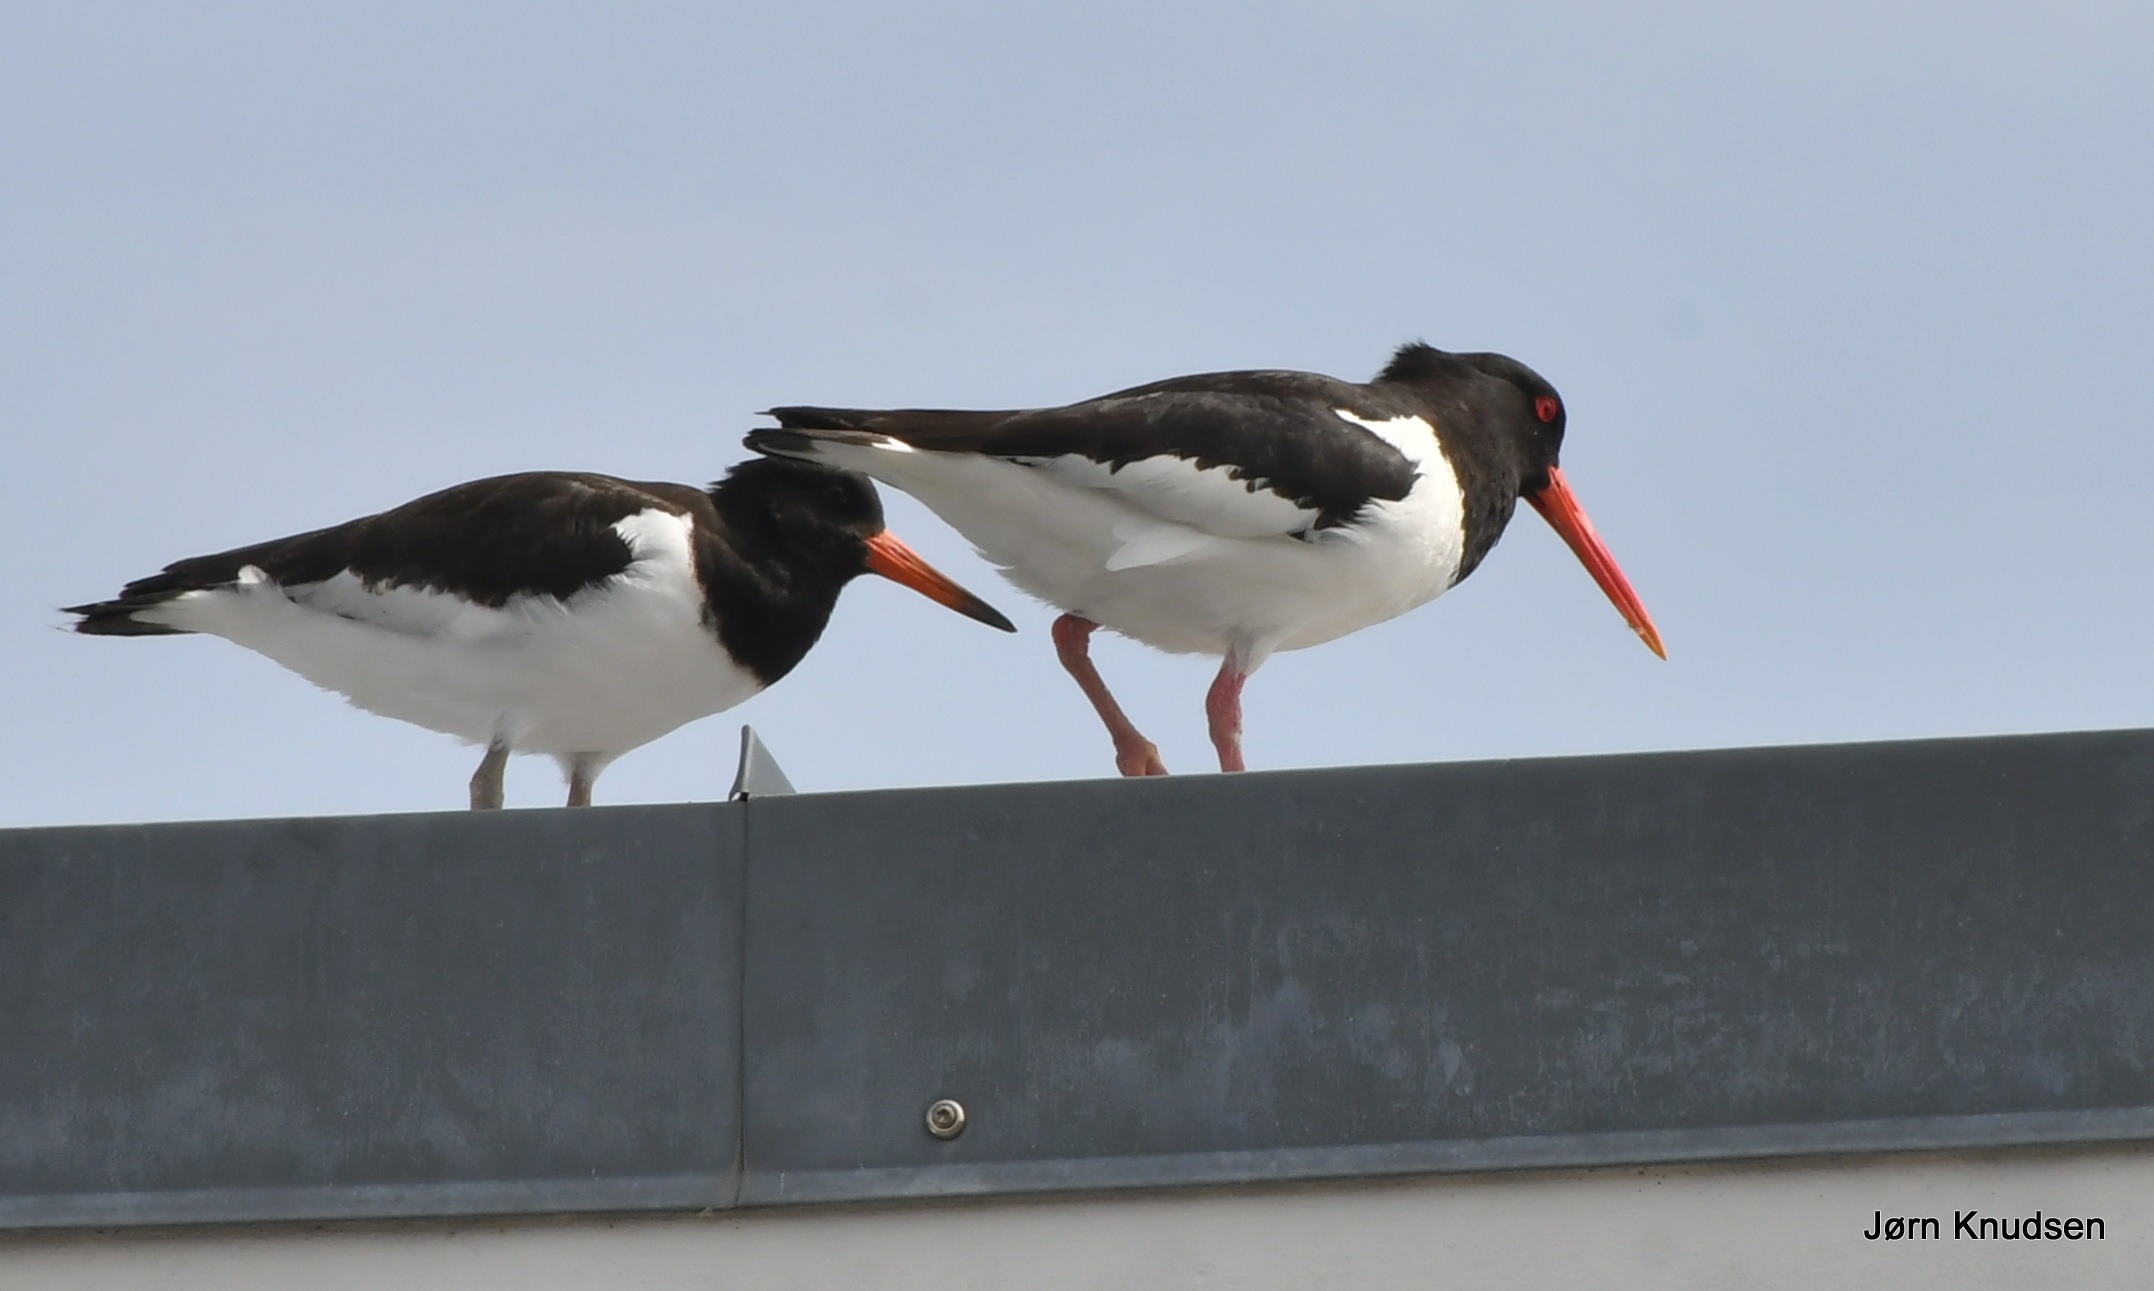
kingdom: Animalia
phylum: Chordata
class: Aves
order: Charadriiformes
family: Haematopodidae
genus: Haematopus
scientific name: Haematopus ostralegus
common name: Strandskade
